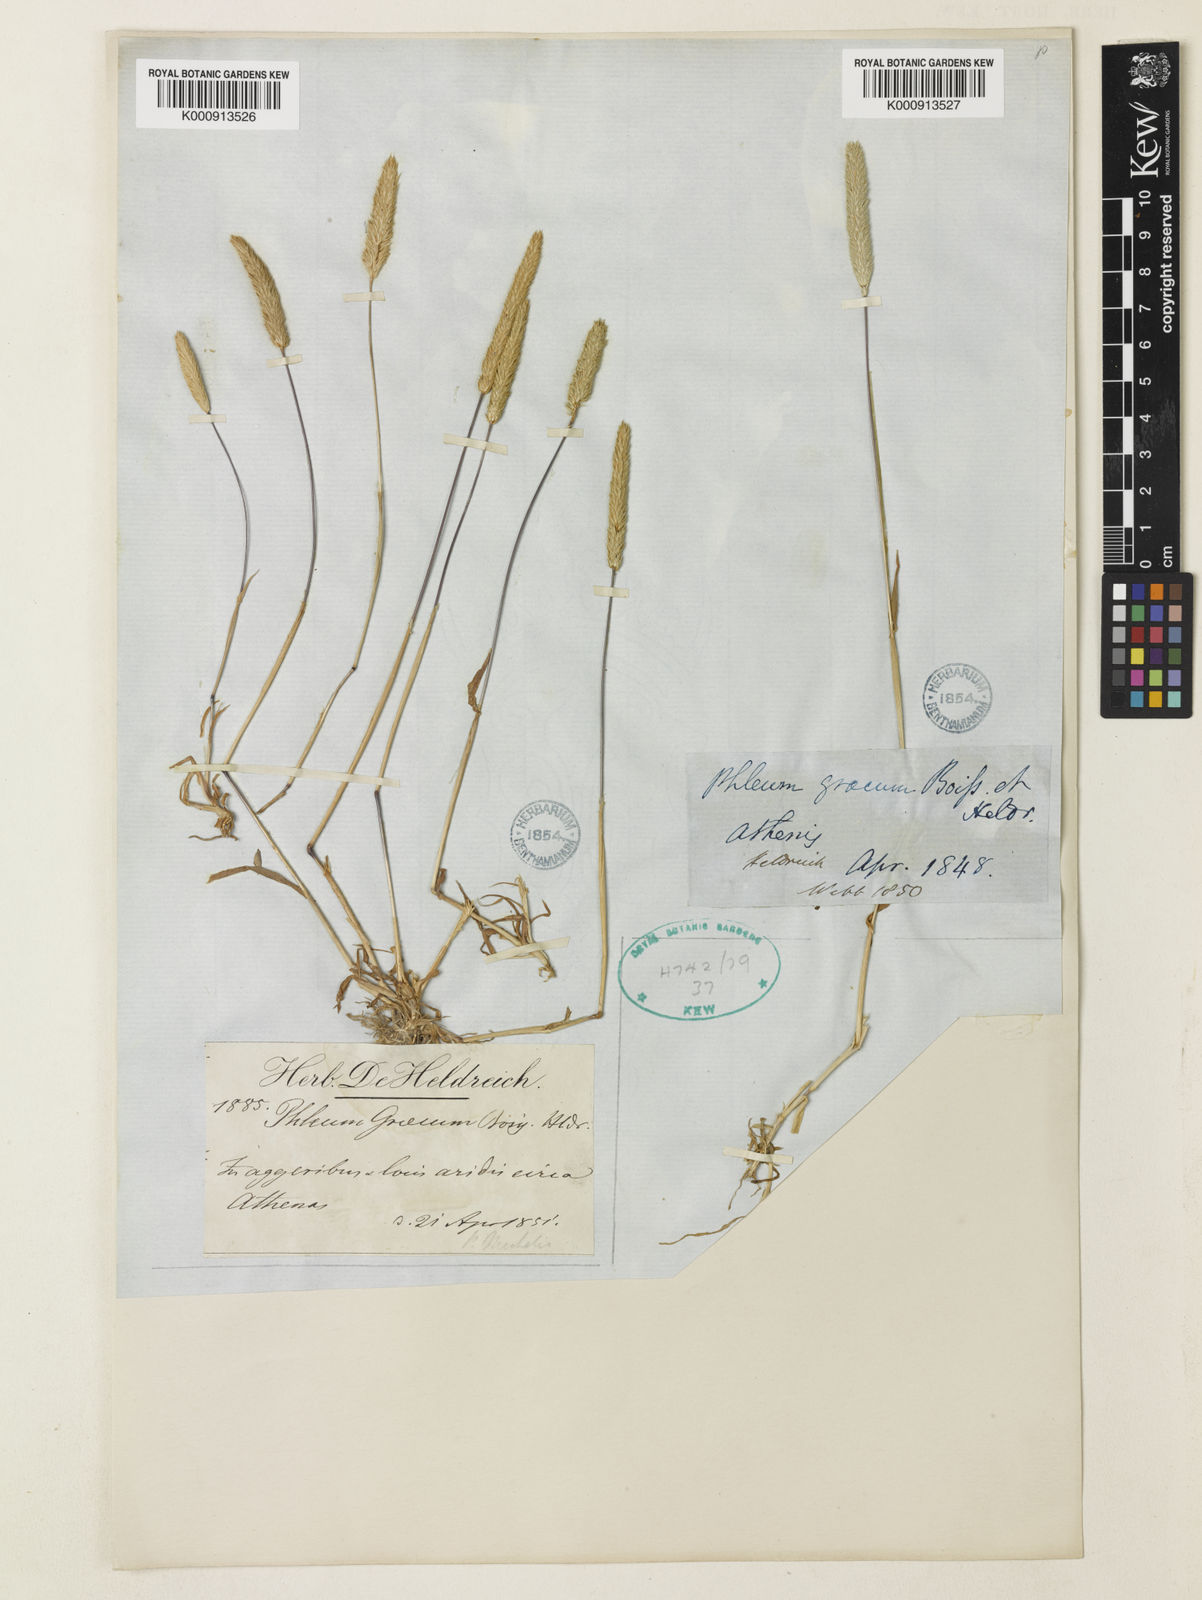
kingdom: Plantae
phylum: Tracheophyta
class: Liliopsida
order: Poales
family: Poaceae
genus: Phleum
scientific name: Phleum exaratum
